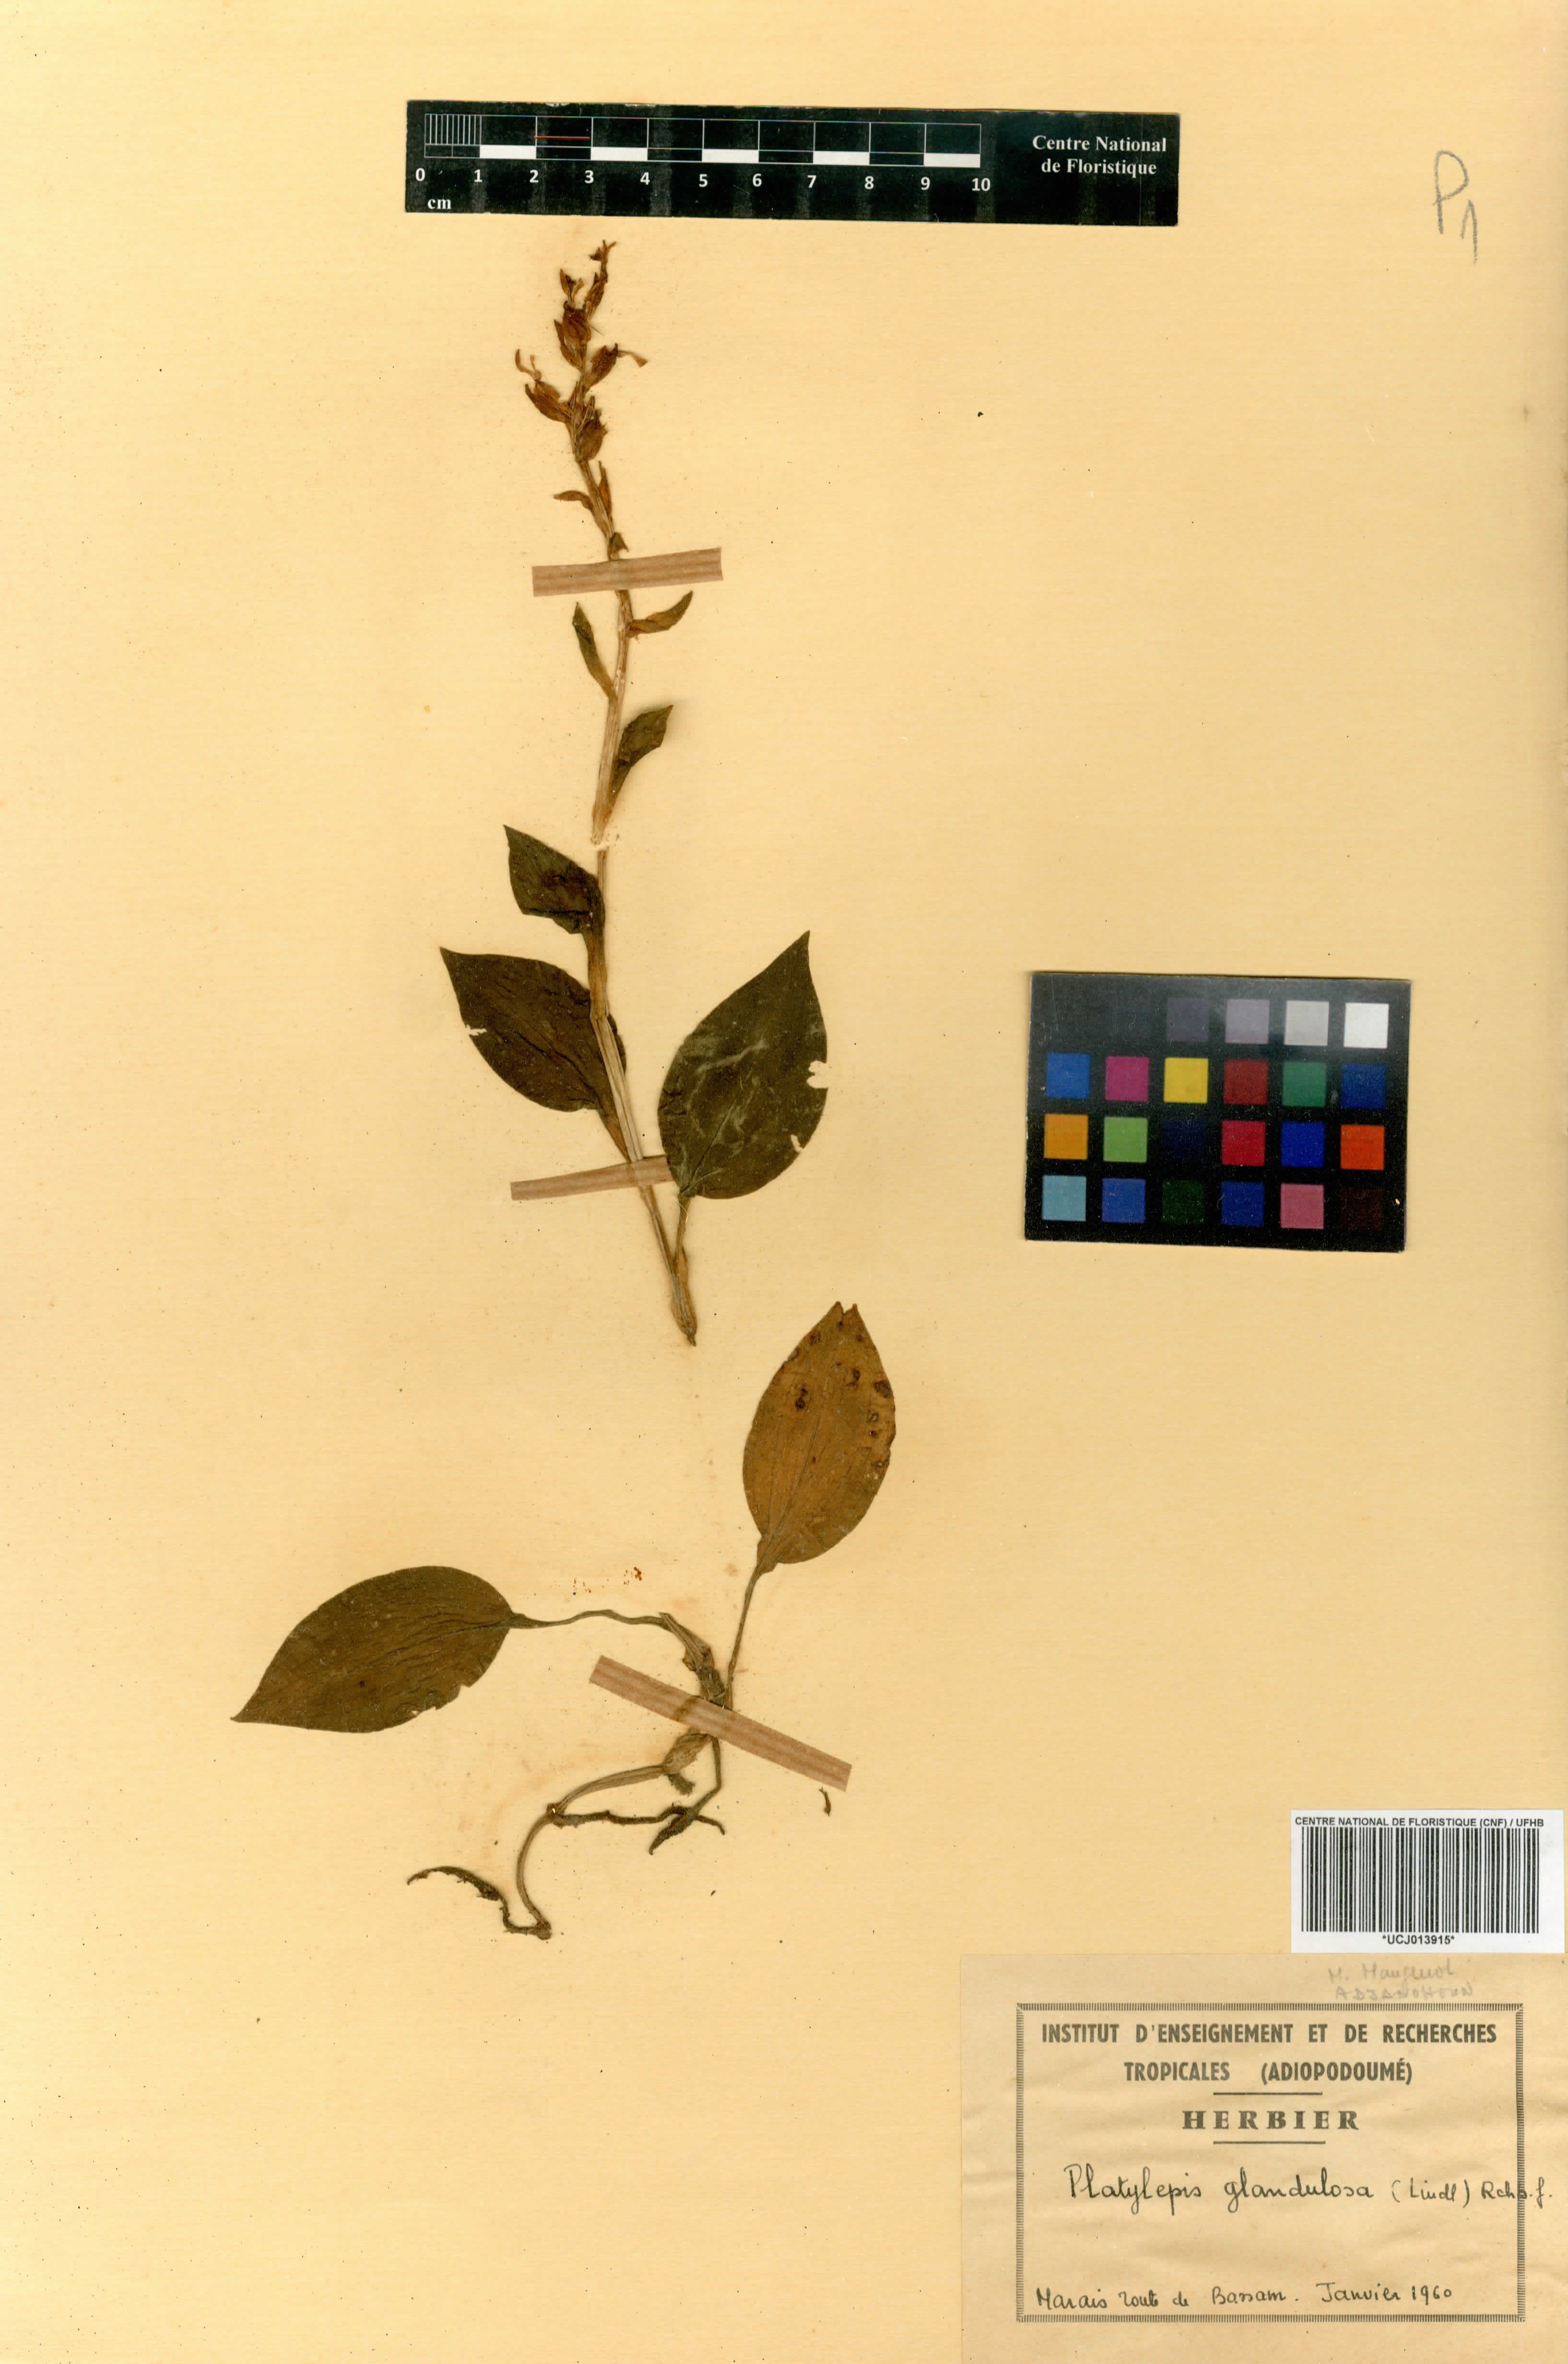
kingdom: Plantae
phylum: Tracheophyta
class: Liliopsida
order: Asparagales
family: Orchidaceae
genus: Platylepis
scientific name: Platylepis glandulosa
